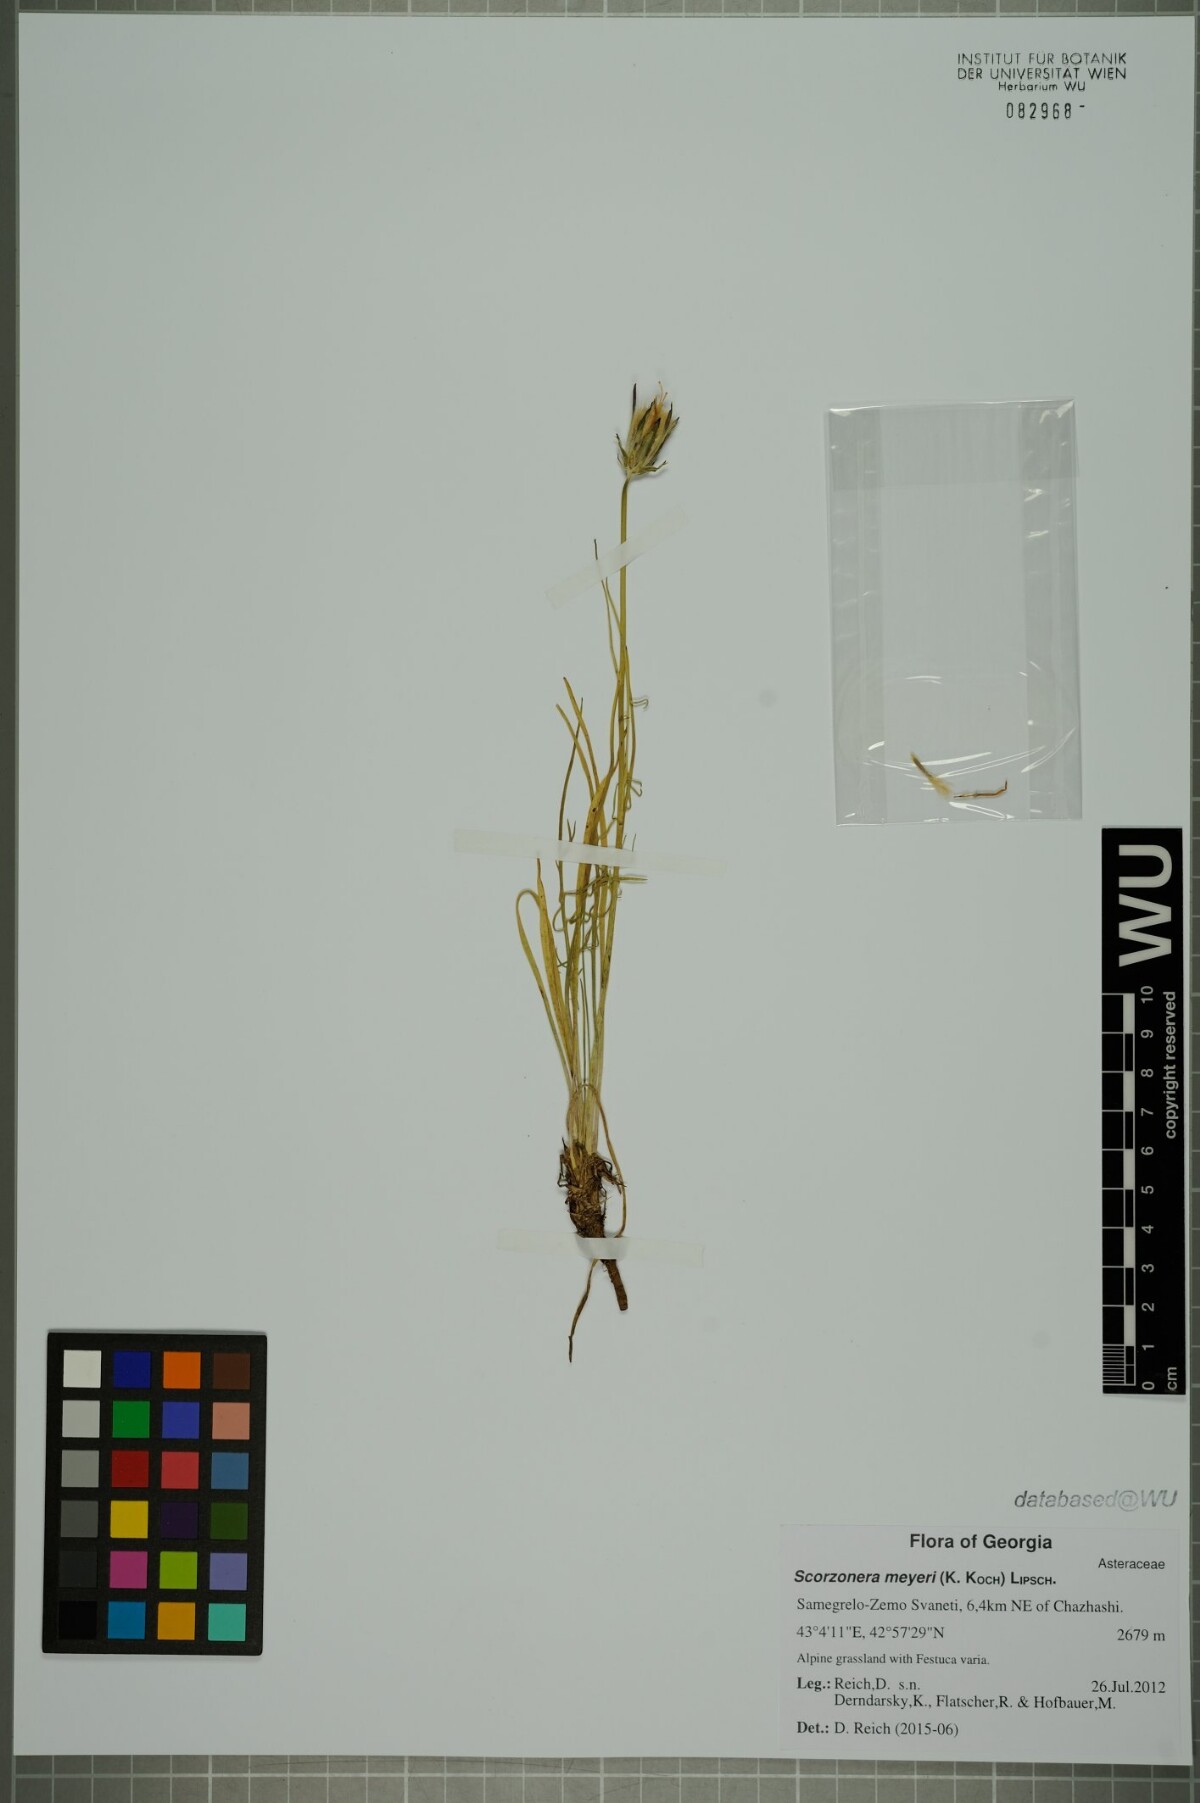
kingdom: Plantae
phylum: Tracheophyta
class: Magnoliopsida
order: Asterales
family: Asteraceae
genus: Scorzonera
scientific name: Scorzonera meyeri
